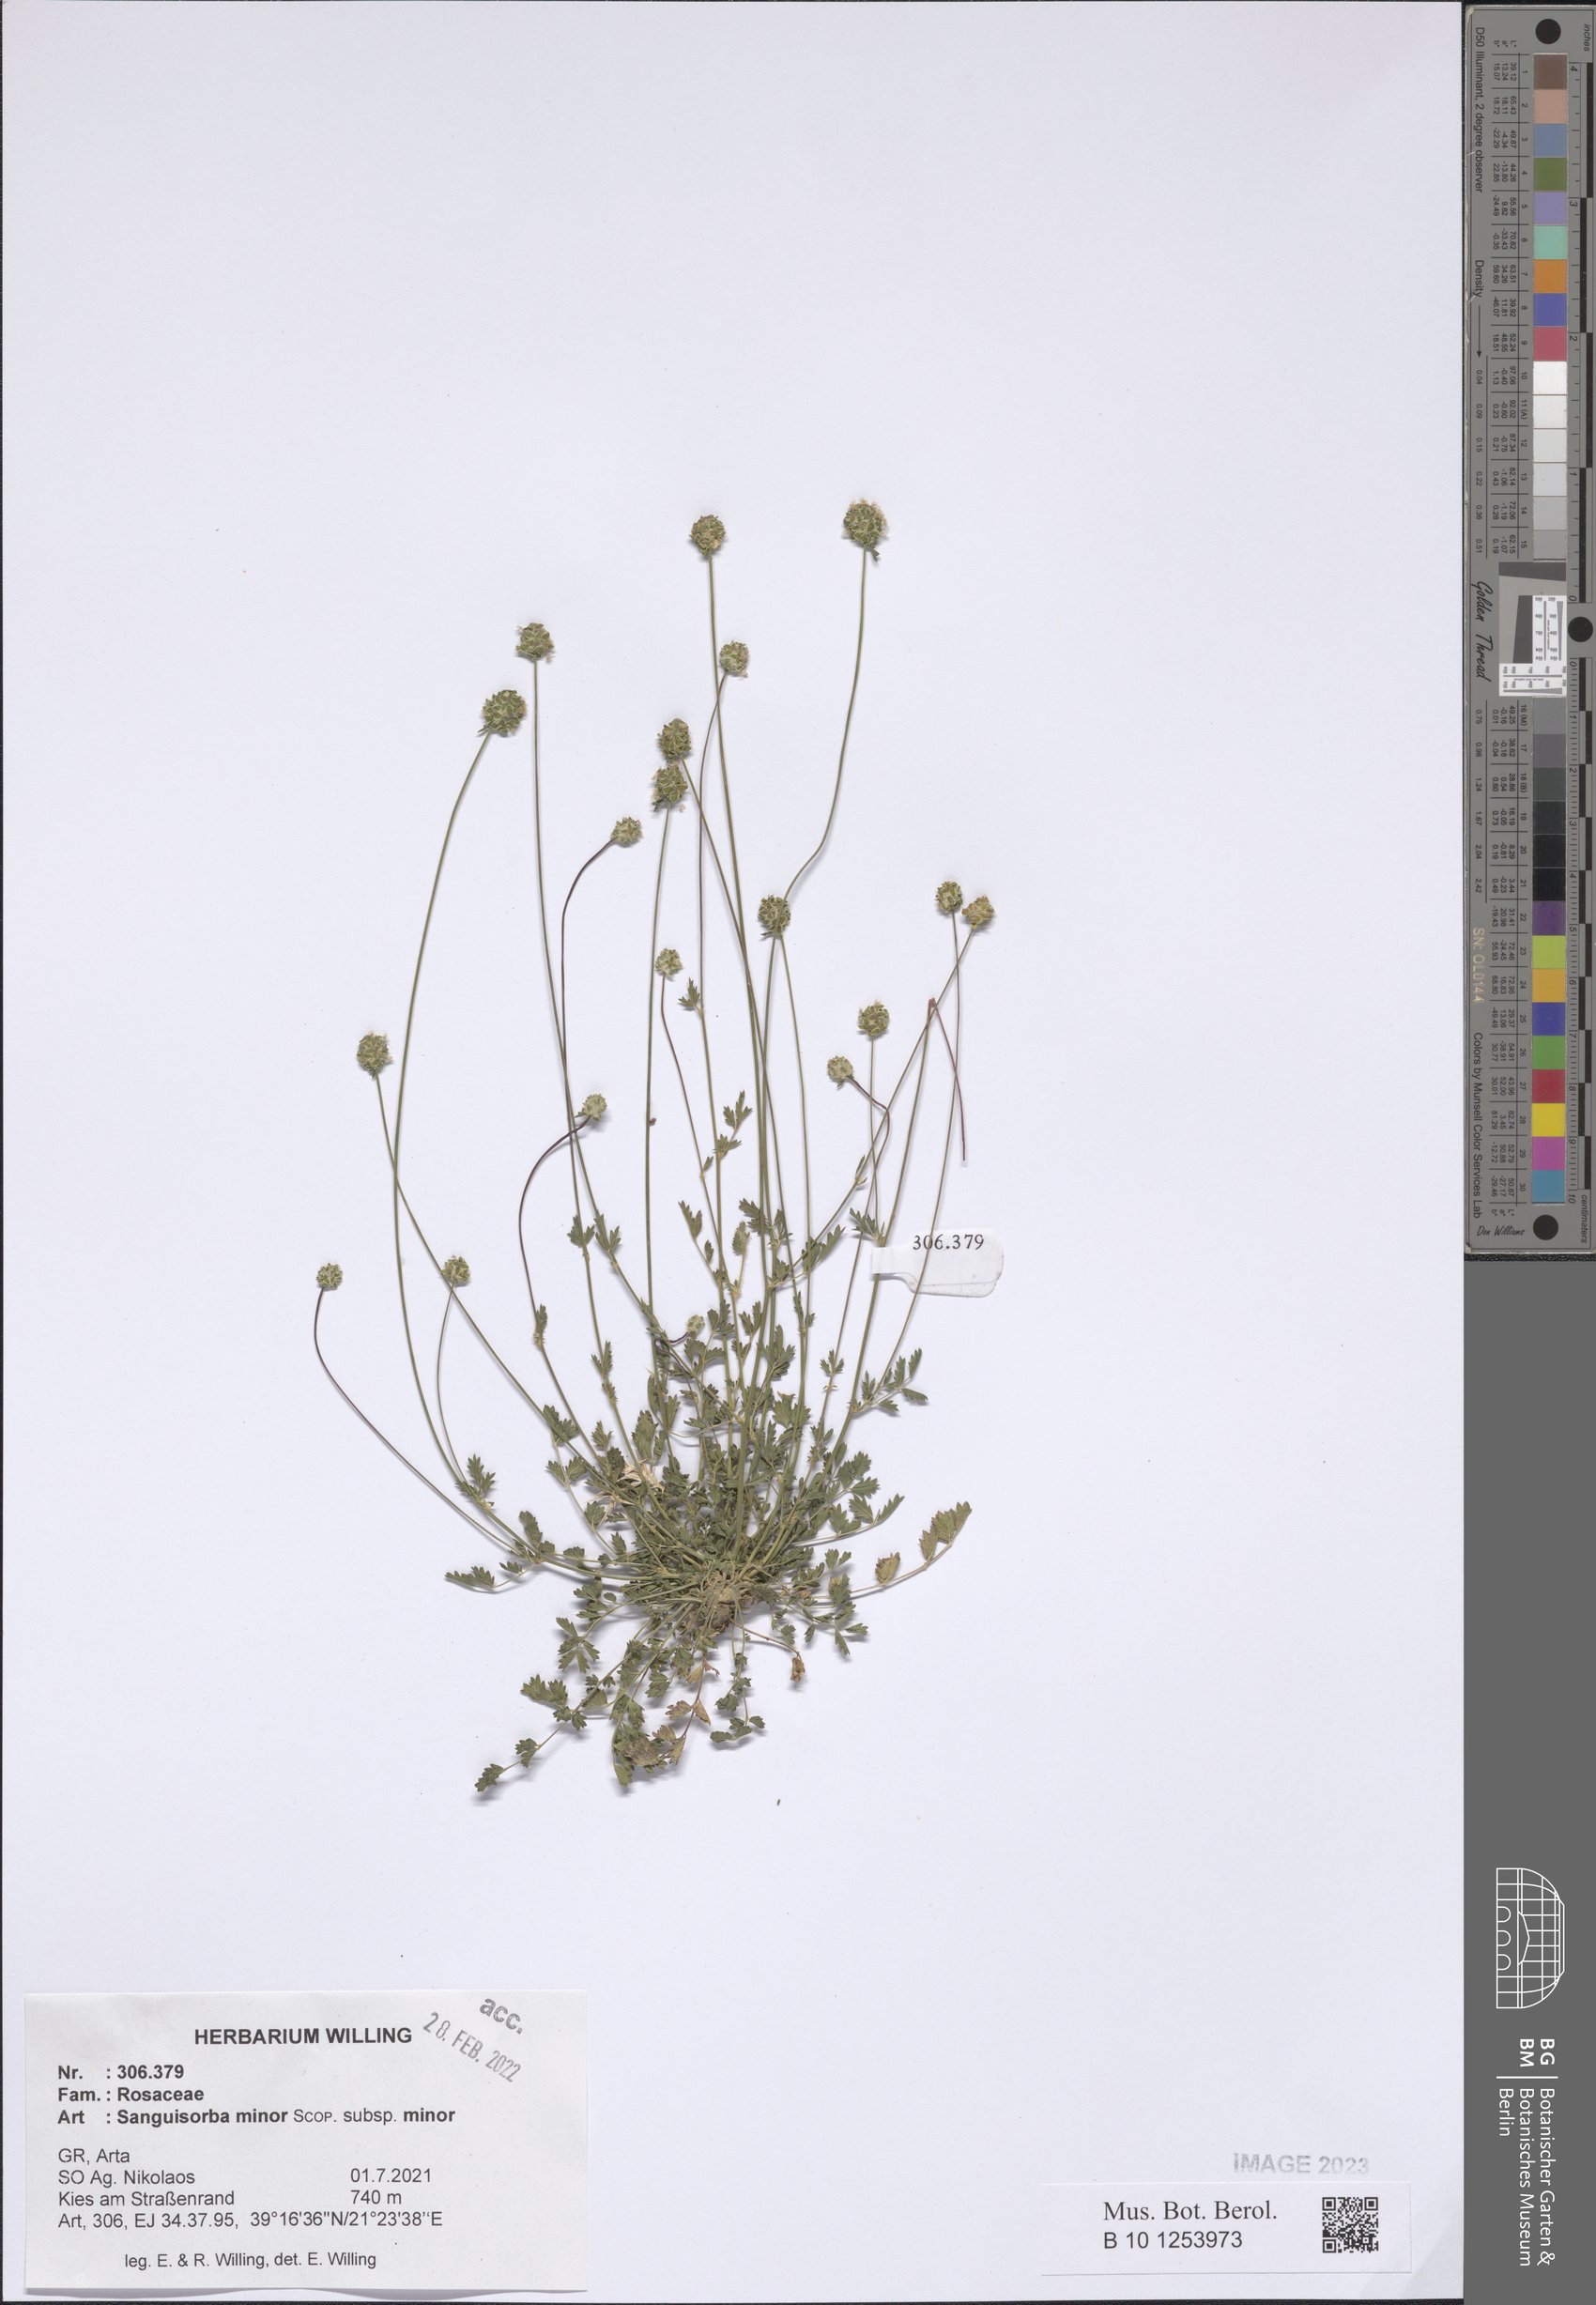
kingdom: Plantae
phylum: Tracheophyta
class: Magnoliopsida
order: Rosales
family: Rosaceae
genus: Poterium
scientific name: Poterium sanguisorba
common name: Salad burnet
